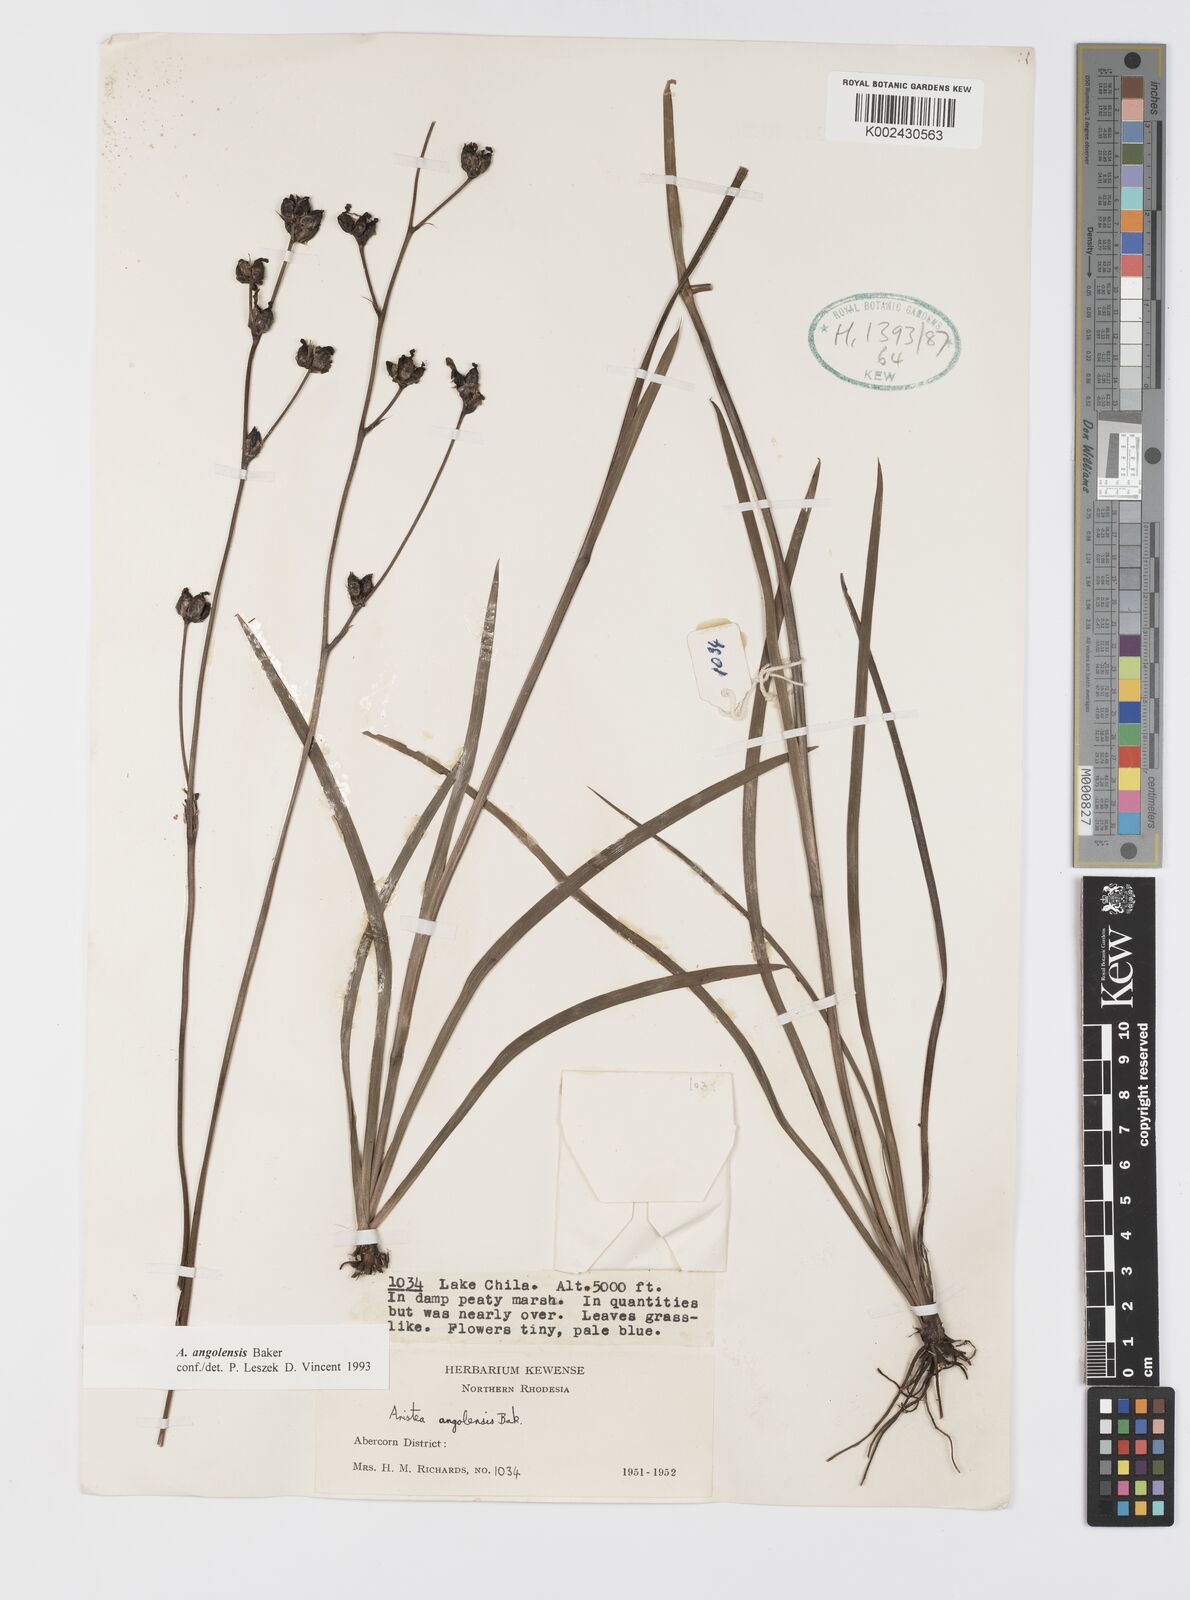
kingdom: Plantae
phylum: Tracheophyta
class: Liliopsida
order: Asparagales
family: Iridaceae
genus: Aristea
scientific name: Aristea angolensis
